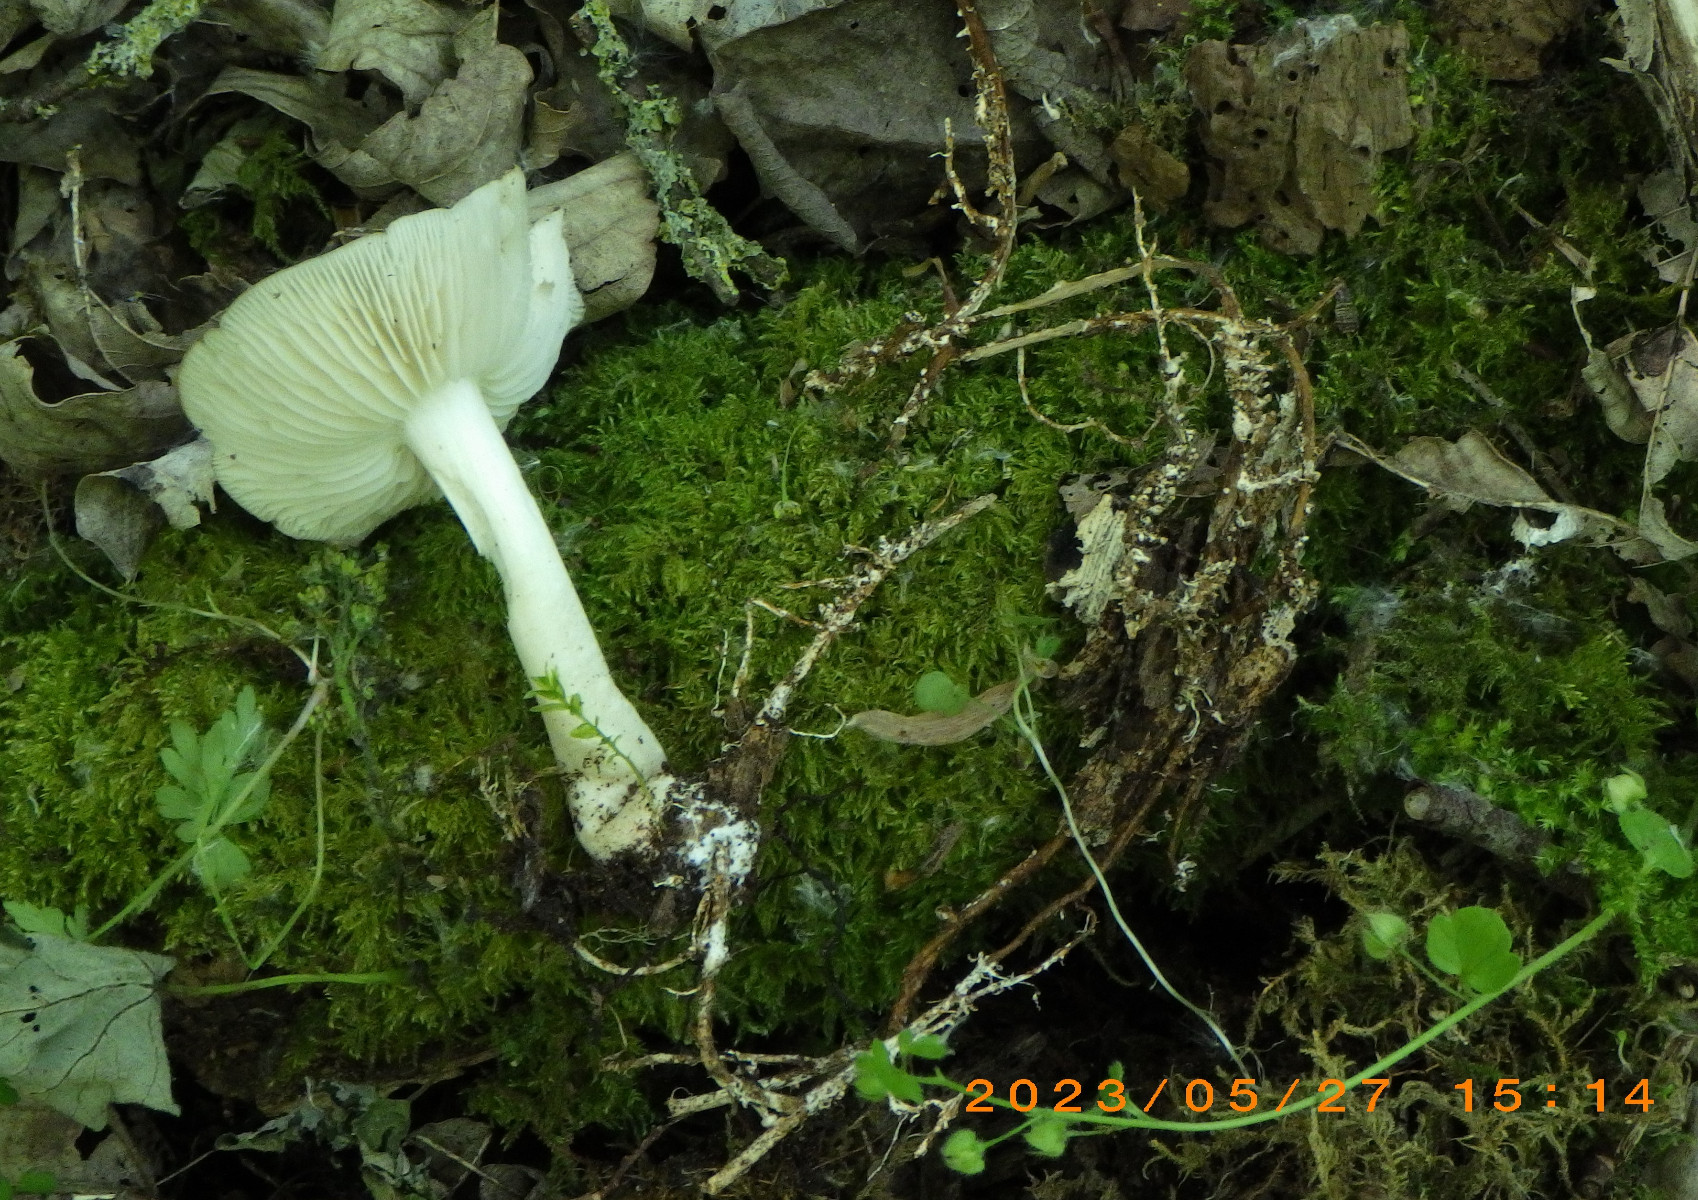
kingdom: Fungi
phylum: Basidiomycota
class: Agaricomycetes
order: Agaricales
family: Tricholomataceae
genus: Megacollybia
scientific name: Megacollybia platyphylla
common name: bredbladet væbnerhat
